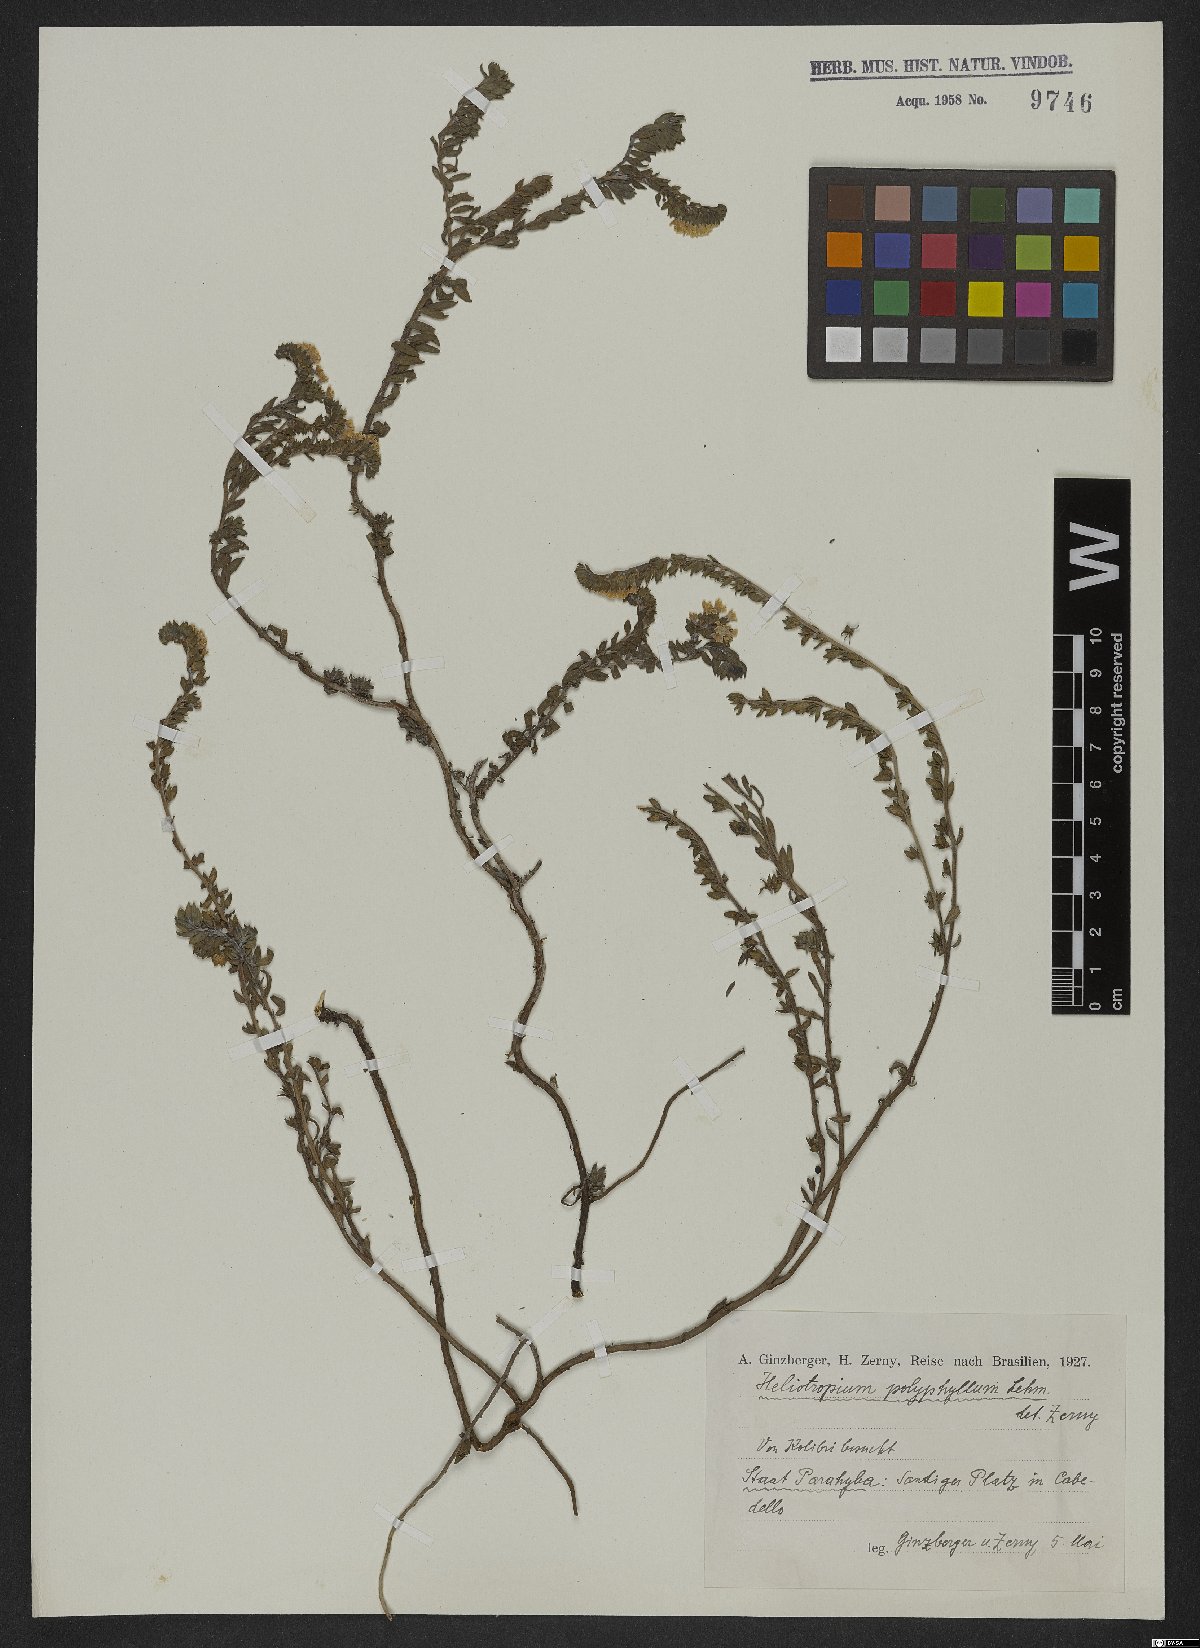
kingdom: Plantae
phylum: Tracheophyta
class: Magnoliopsida
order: Boraginales
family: Heliotropiaceae
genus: Euploca
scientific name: Euploca polyphylla
